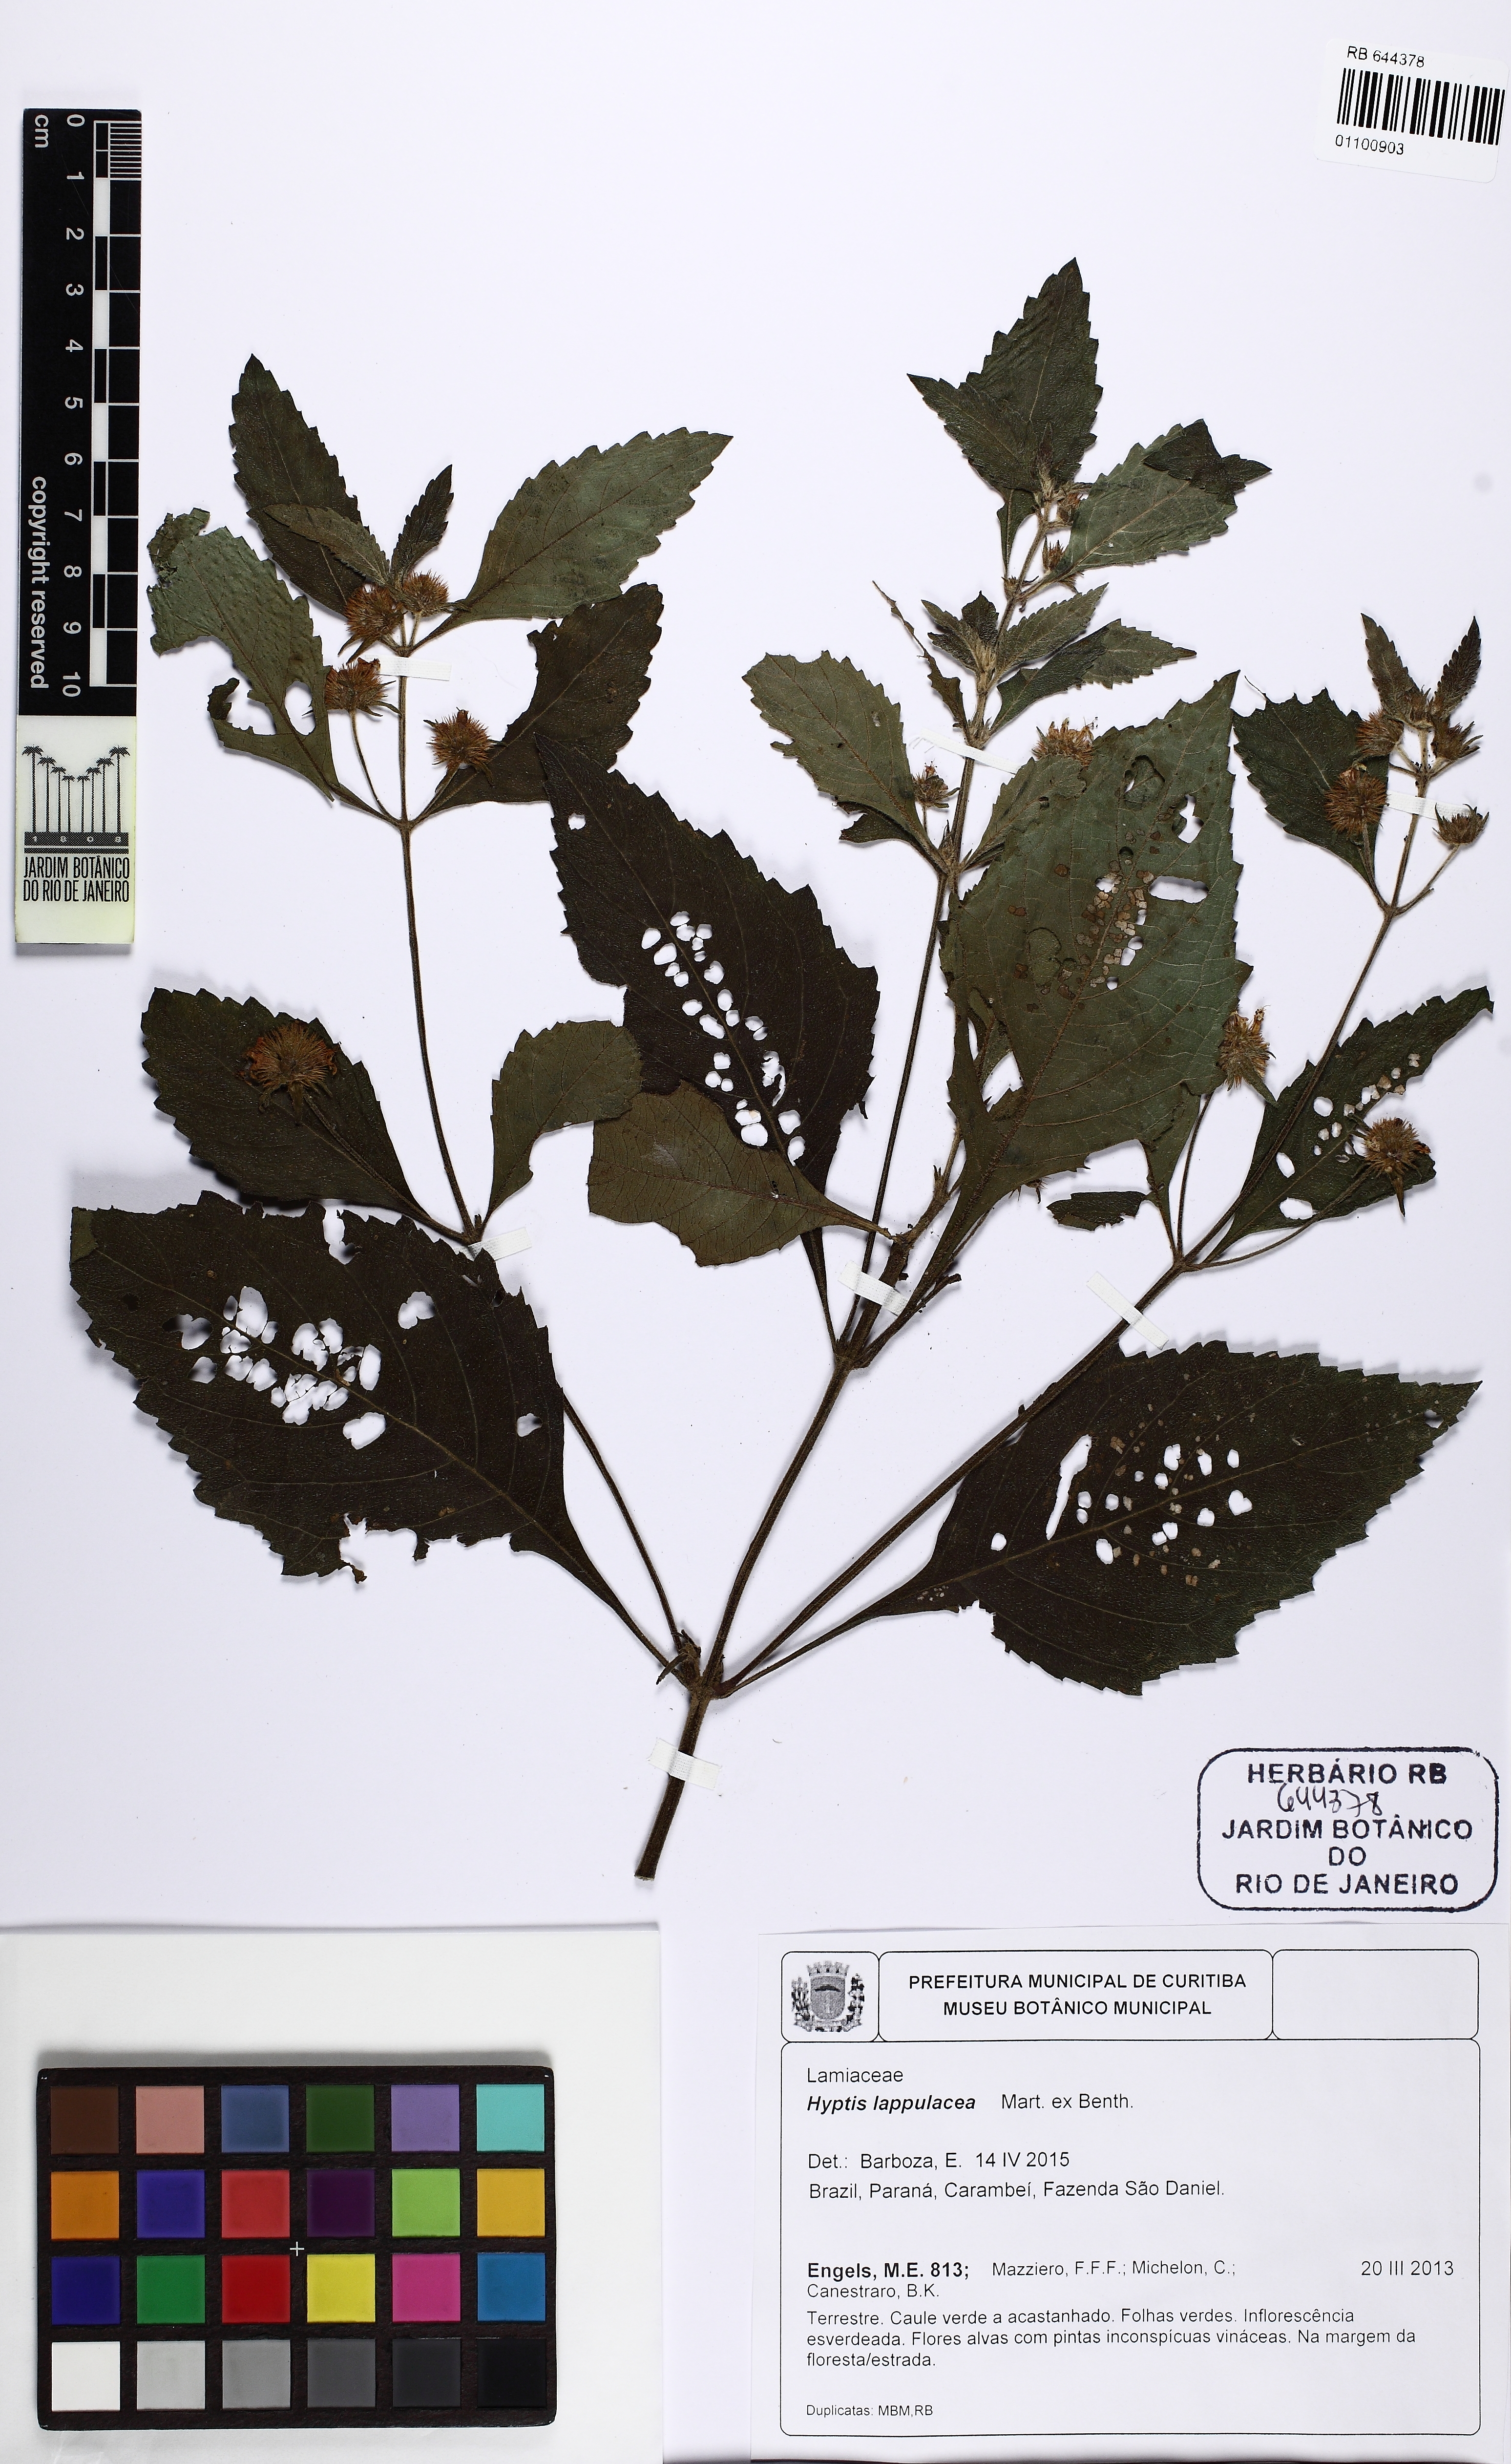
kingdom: Plantae
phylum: Tracheophyta
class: Magnoliopsida
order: Lamiales
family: Lamiaceae
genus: Hyptis
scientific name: Hyptis lappulacea
